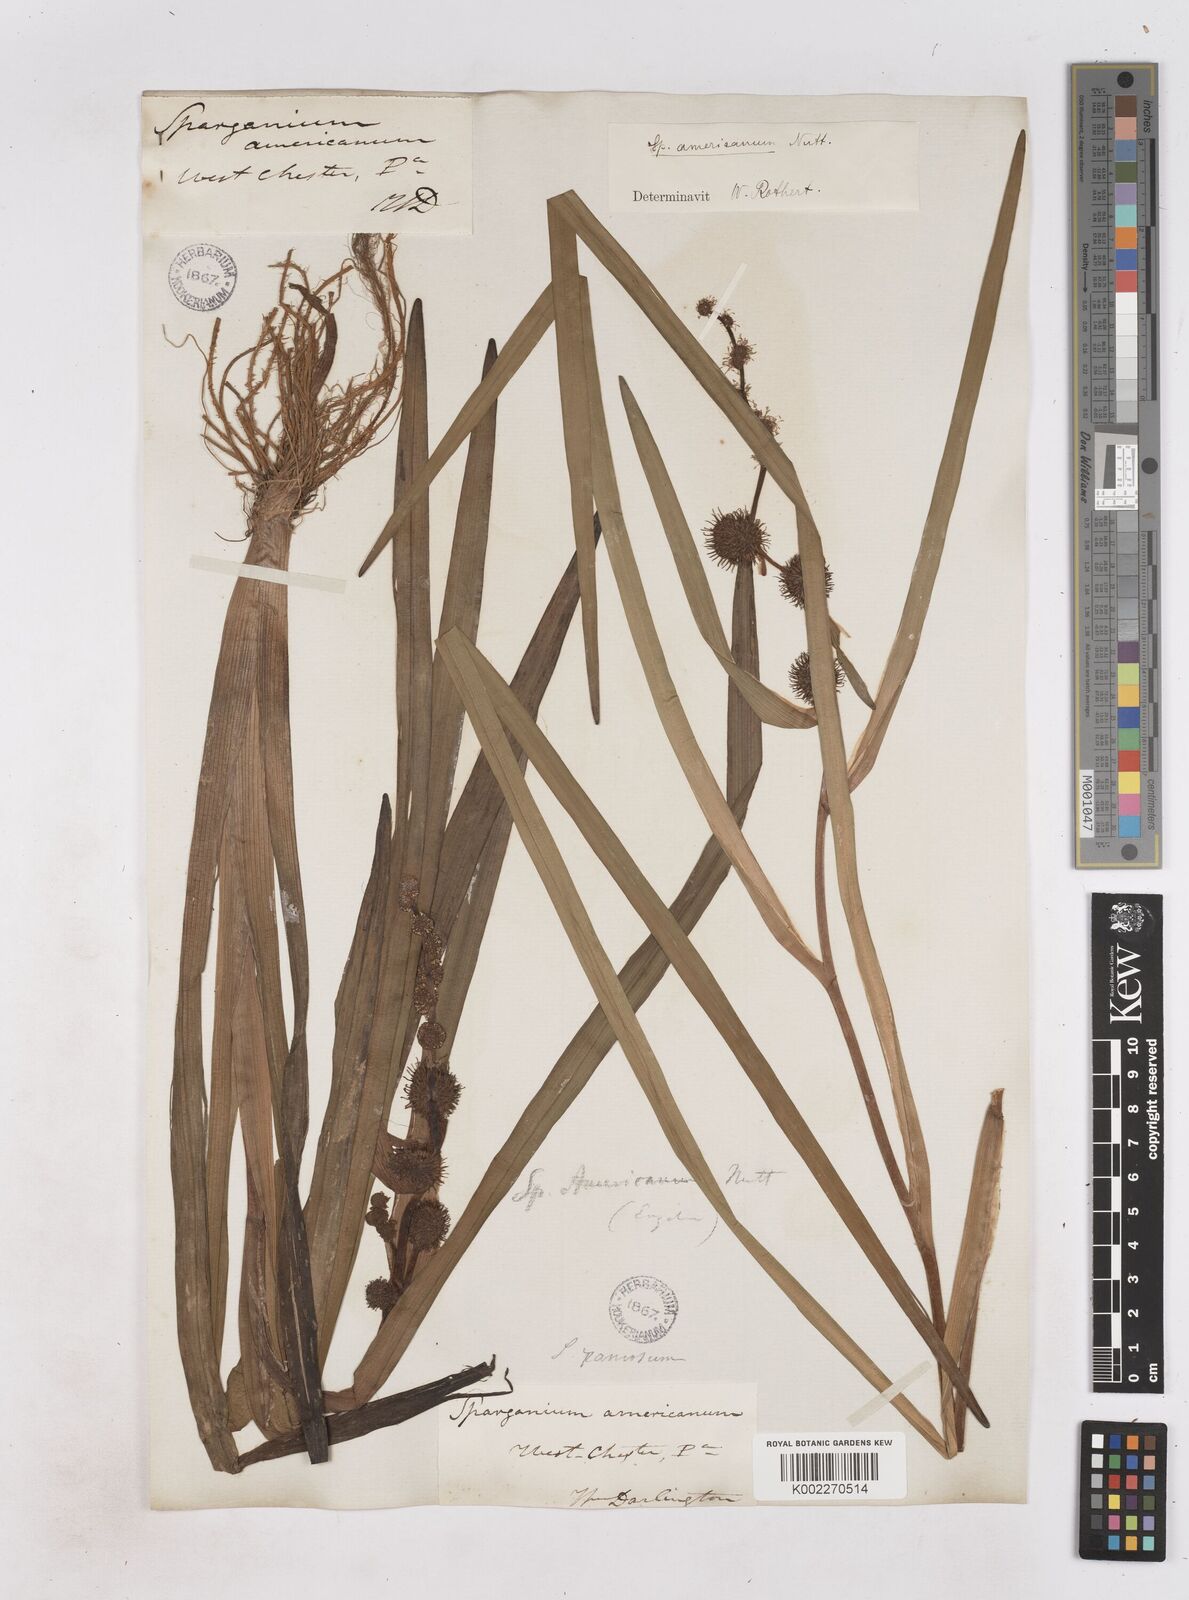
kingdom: Plantae
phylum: Tracheophyta
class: Liliopsida
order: Poales
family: Typhaceae
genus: Sparganium
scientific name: Sparganium americanum
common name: American burreed
